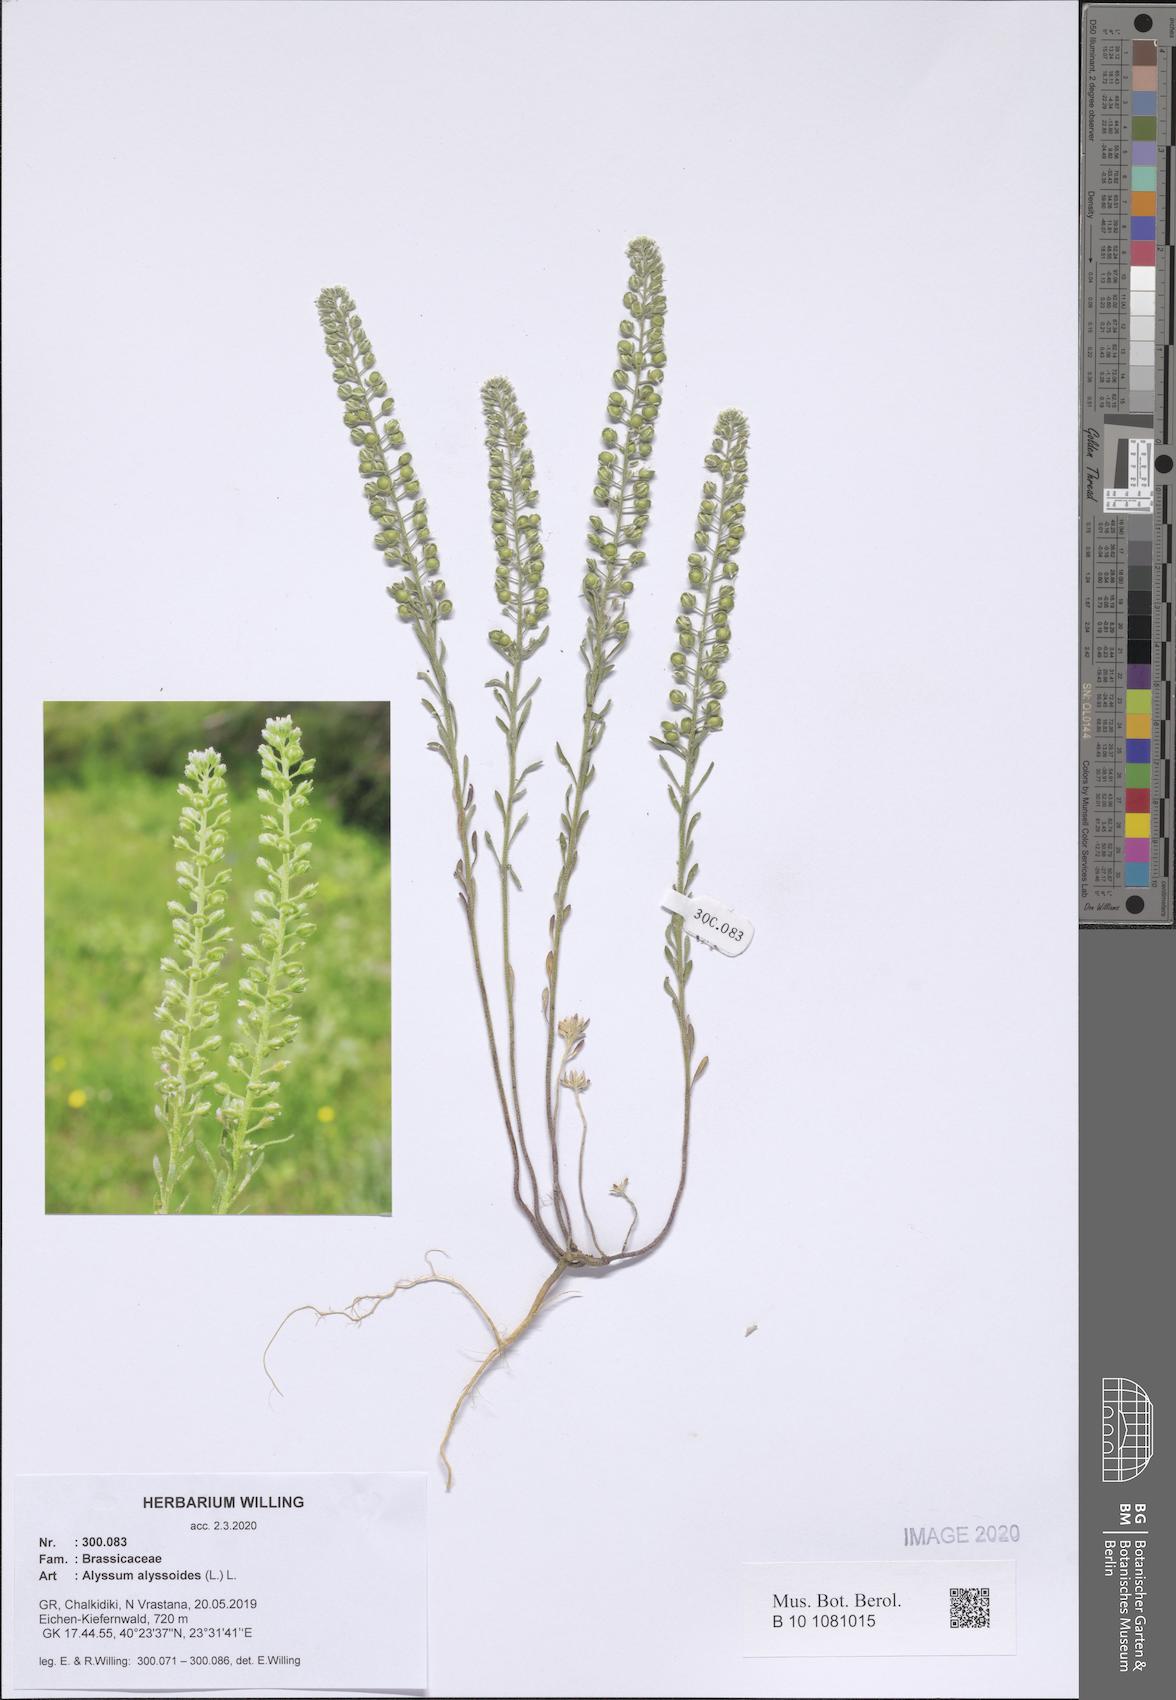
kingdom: Plantae
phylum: Tracheophyta
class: Magnoliopsida
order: Brassicales
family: Brassicaceae
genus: Alyssum
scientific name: Alyssum alyssoides
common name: Small alison
